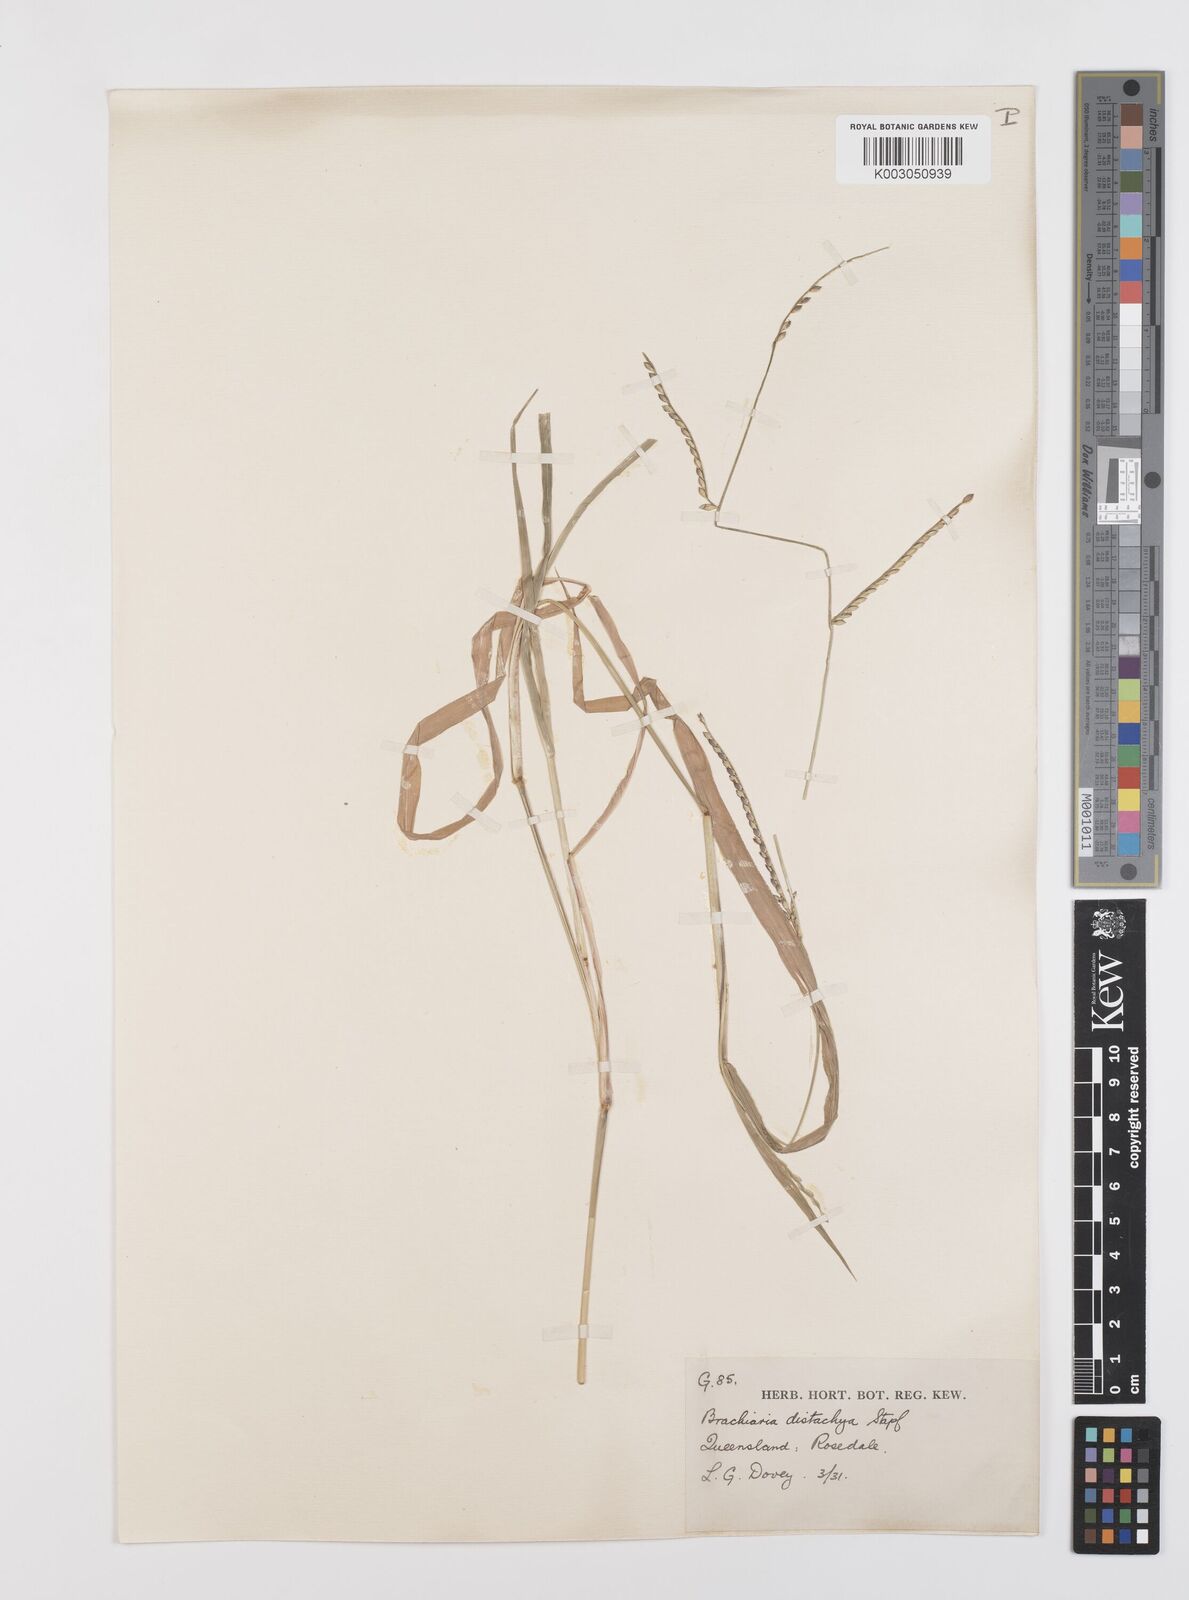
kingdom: Plantae
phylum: Tracheophyta
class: Liliopsida
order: Poales
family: Poaceae
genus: Urochloa
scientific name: Urochloa subquadripara
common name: Armgrass millet
